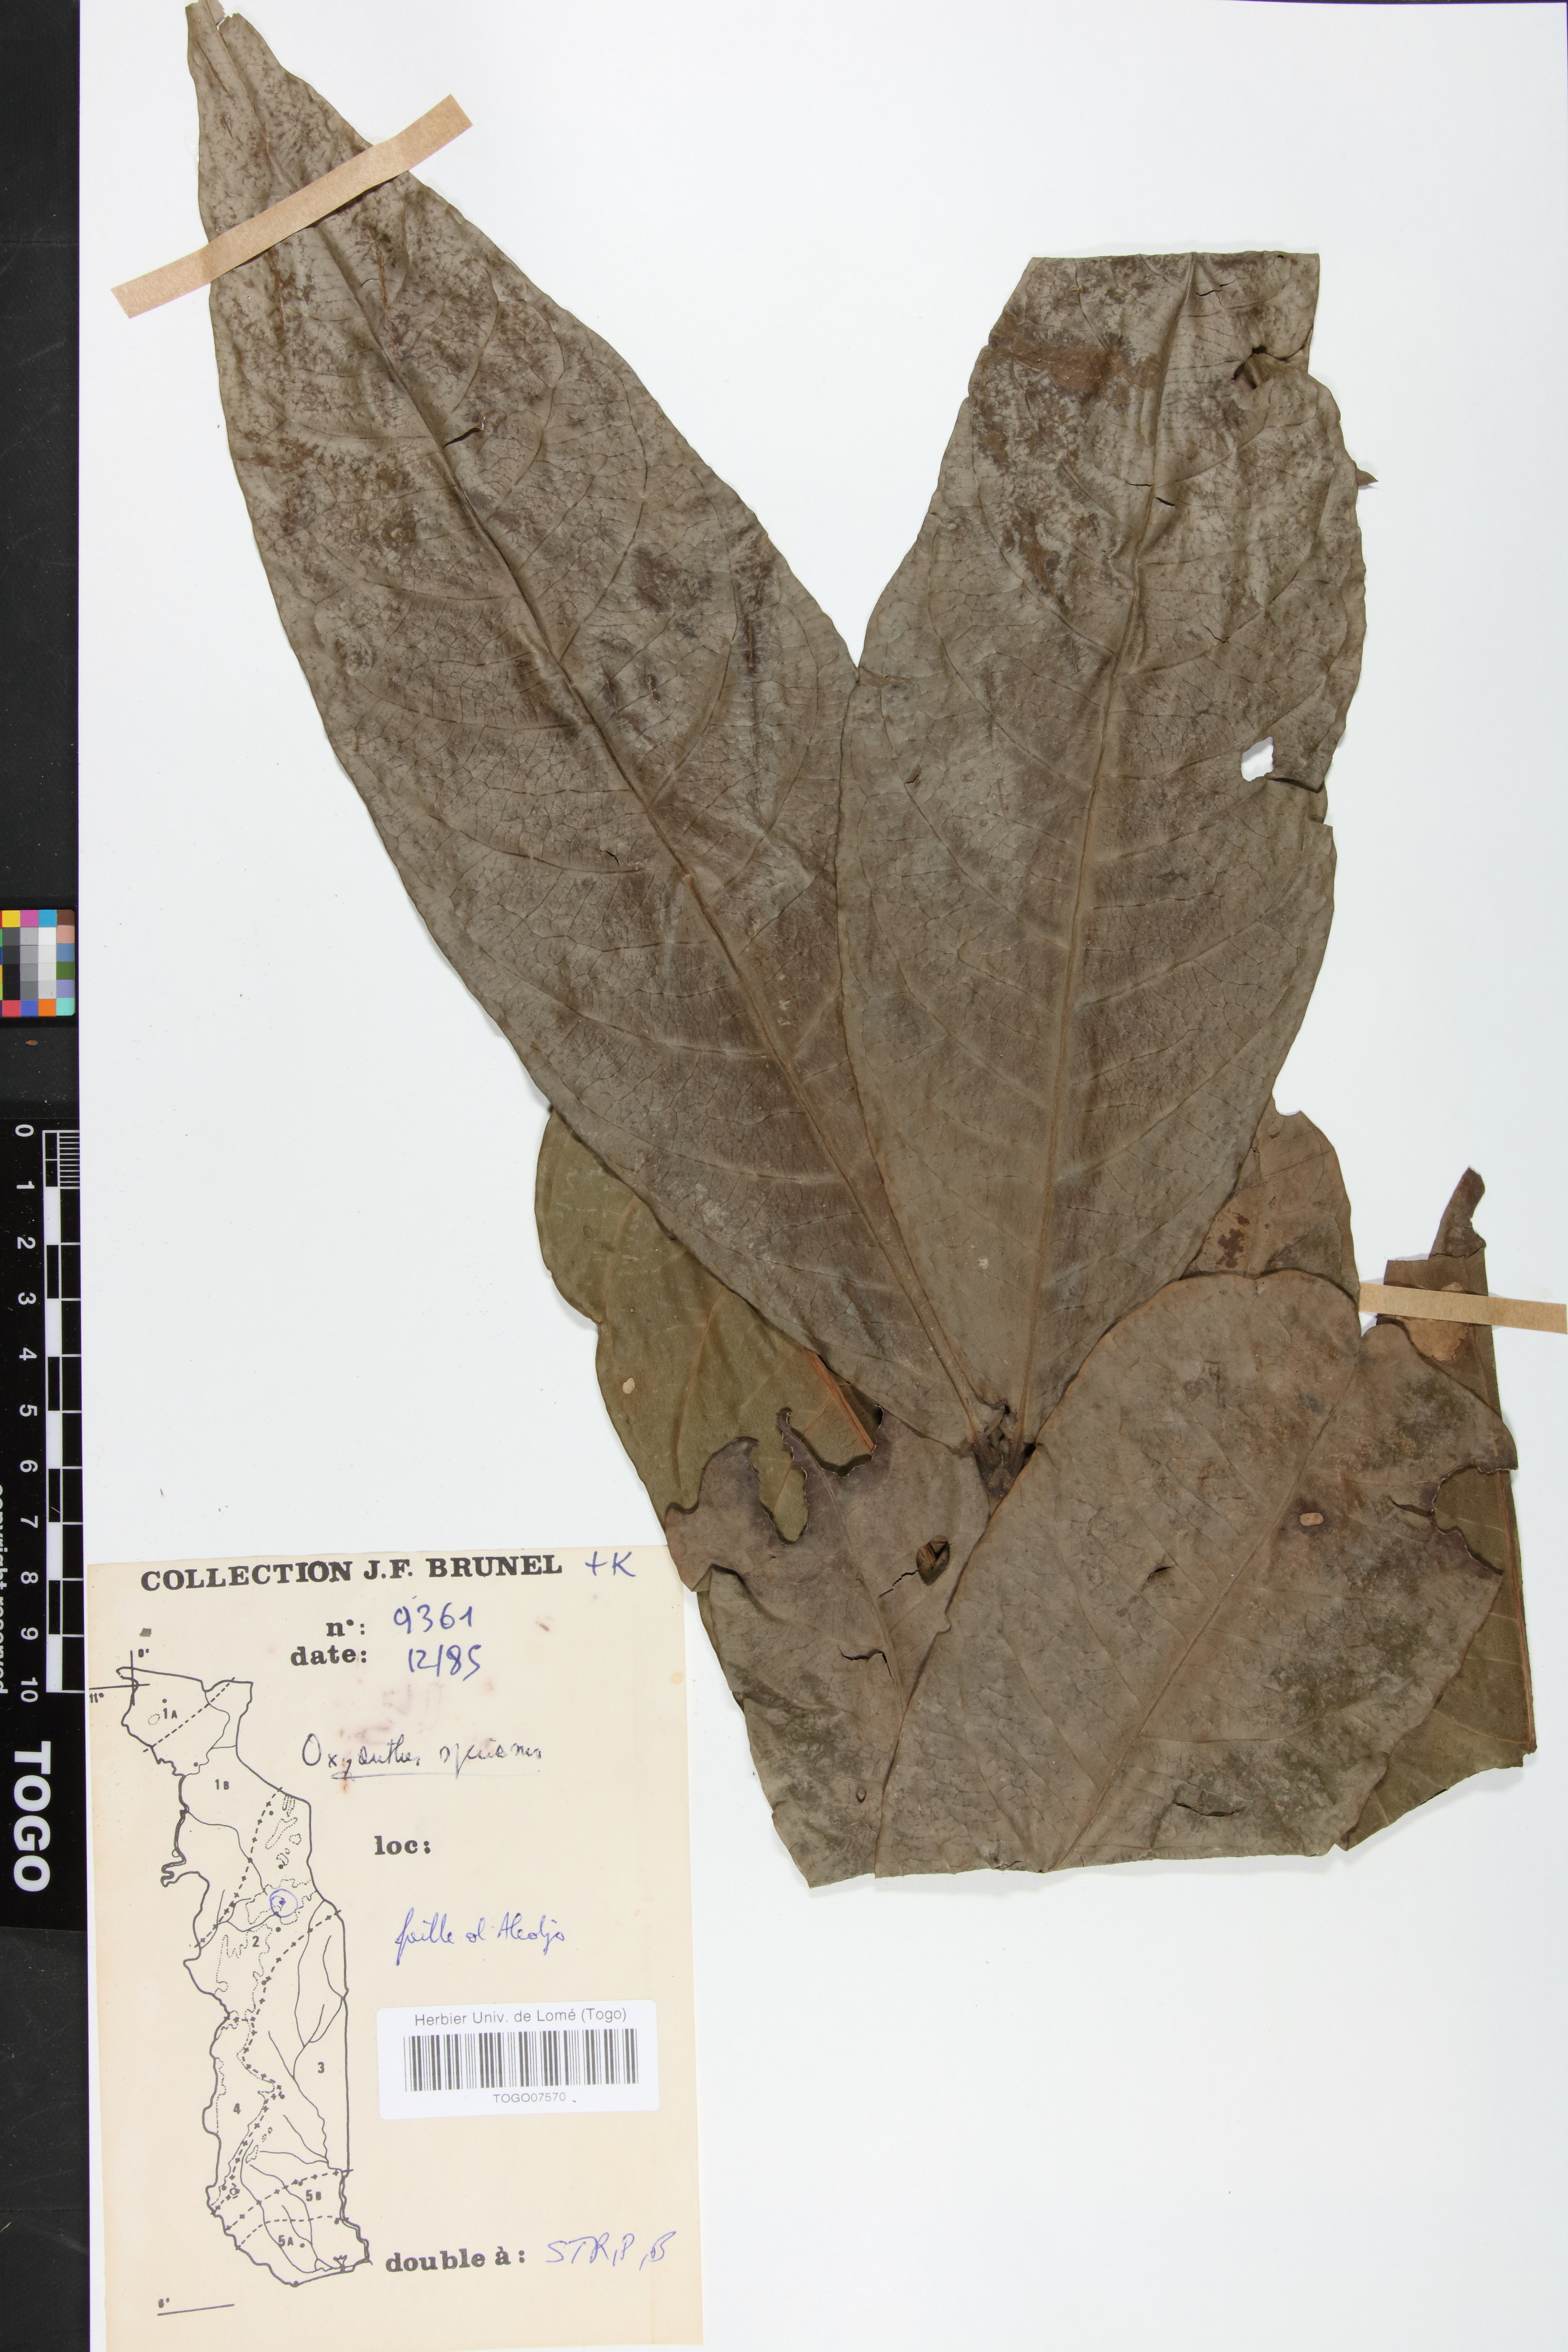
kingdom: Plantae
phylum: Tracheophyta
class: Magnoliopsida
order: Gentianales
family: Rubiaceae
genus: Oxyanthus
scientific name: Oxyanthus speciosus
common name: Whipstick loquat
